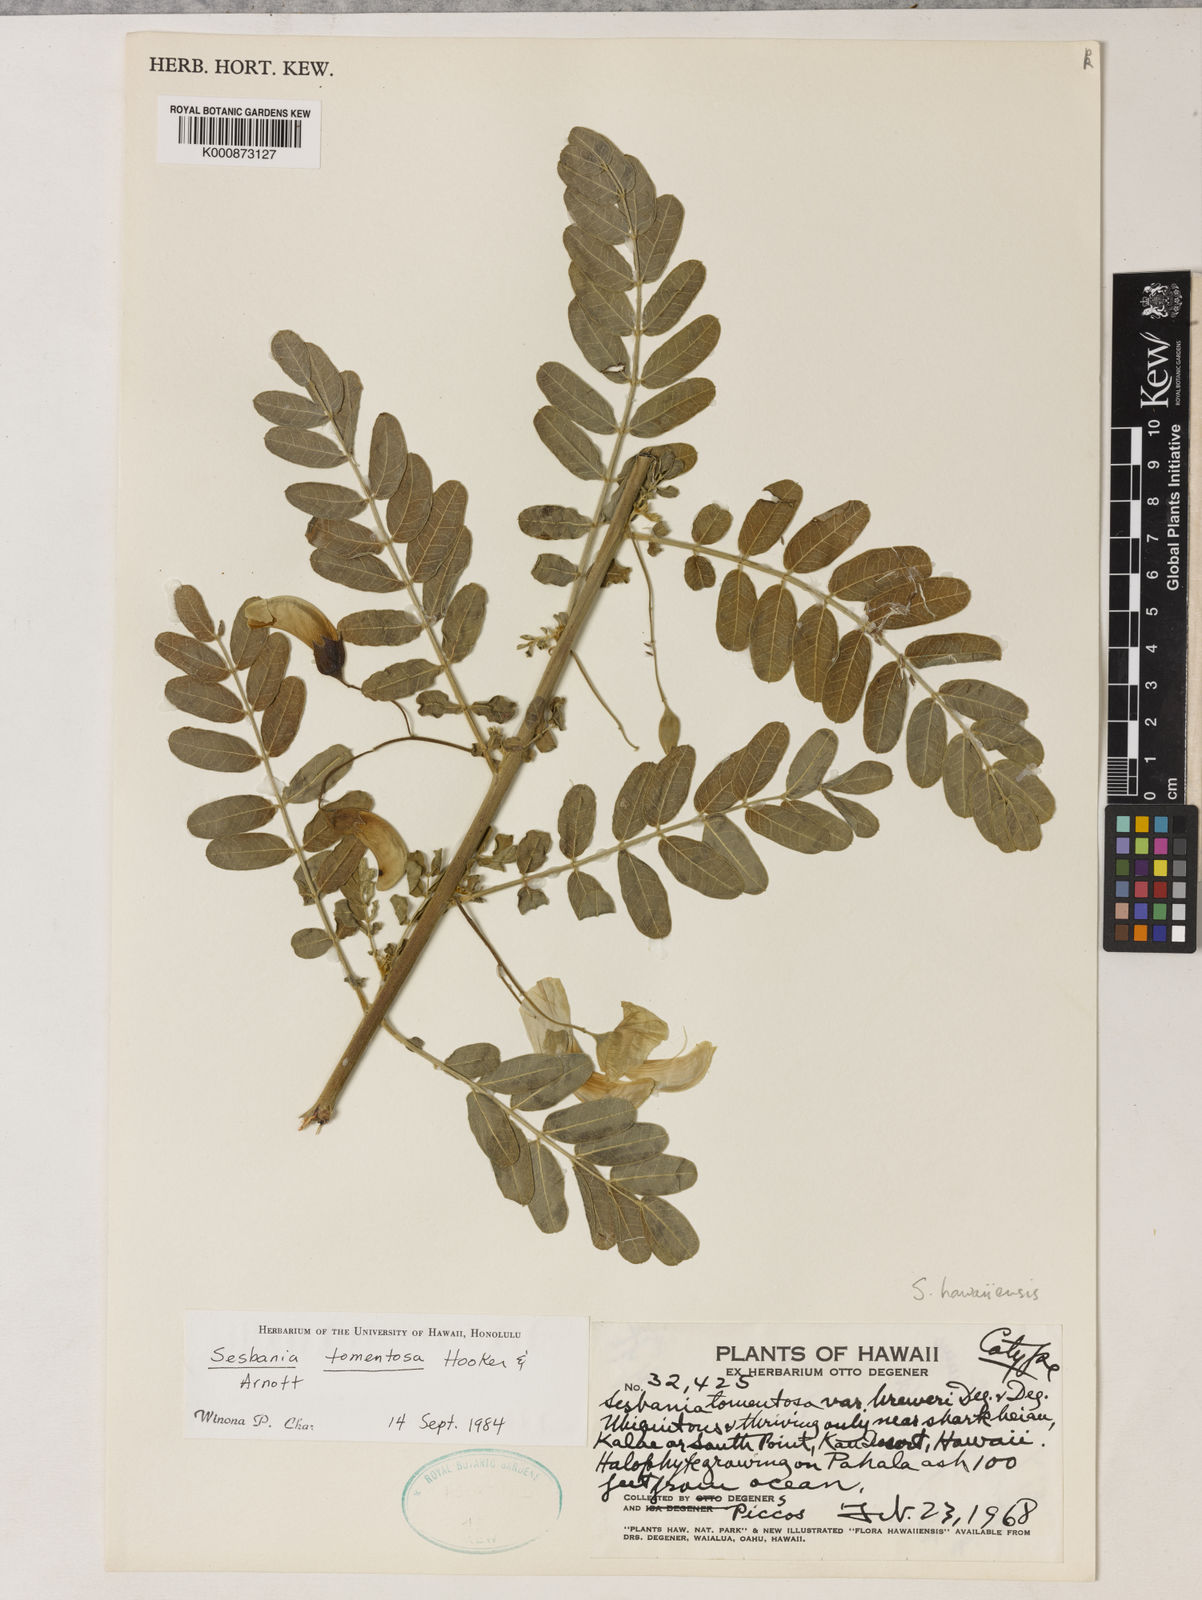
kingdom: Plantae
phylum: Tracheophyta
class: Magnoliopsida
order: Fabales
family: Fabaceae
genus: Sesbania
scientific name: Sesbania tomentosa
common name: `ohai
